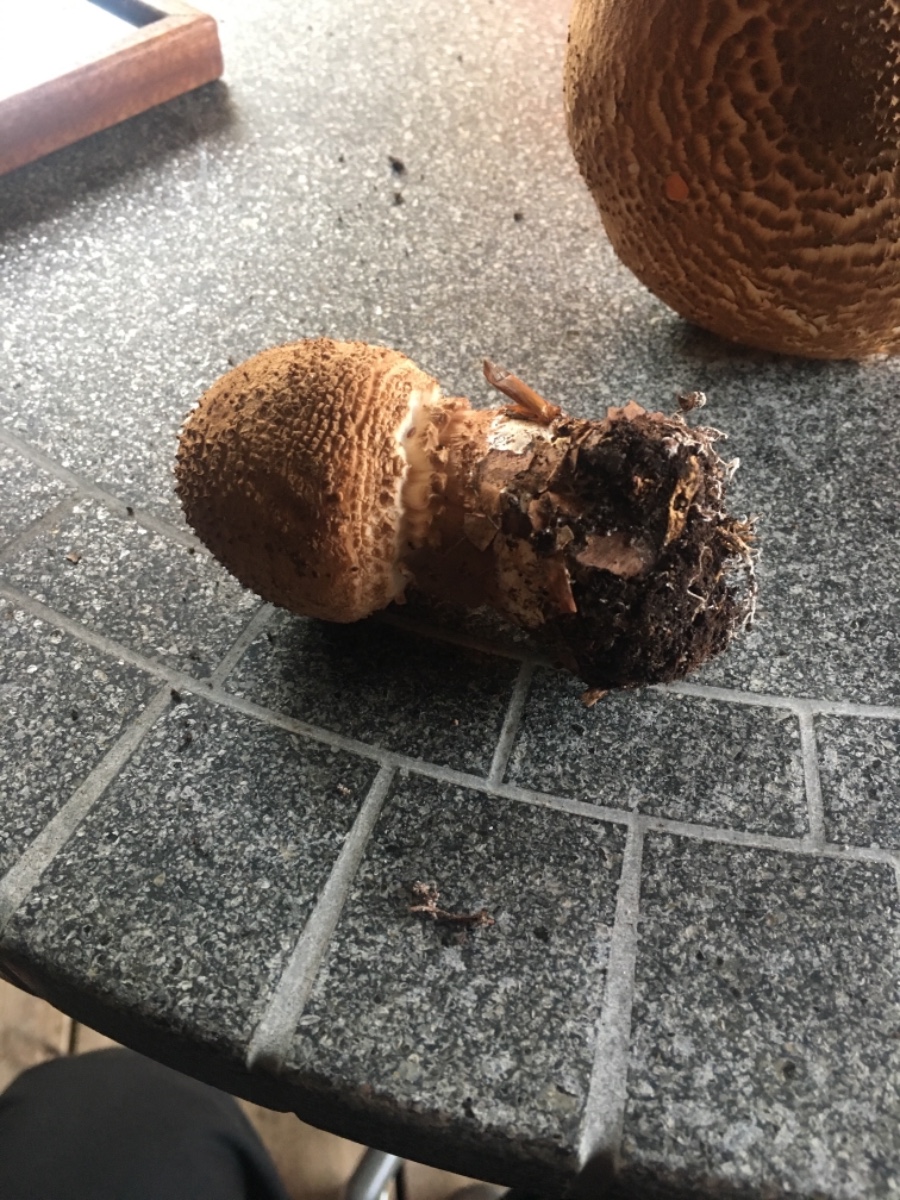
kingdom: Fungi
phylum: Basidiomycota
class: Agaricomycetes
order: Agaricales
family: Agaricaceae
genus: Echinoderma
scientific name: Echinoderma asperum
